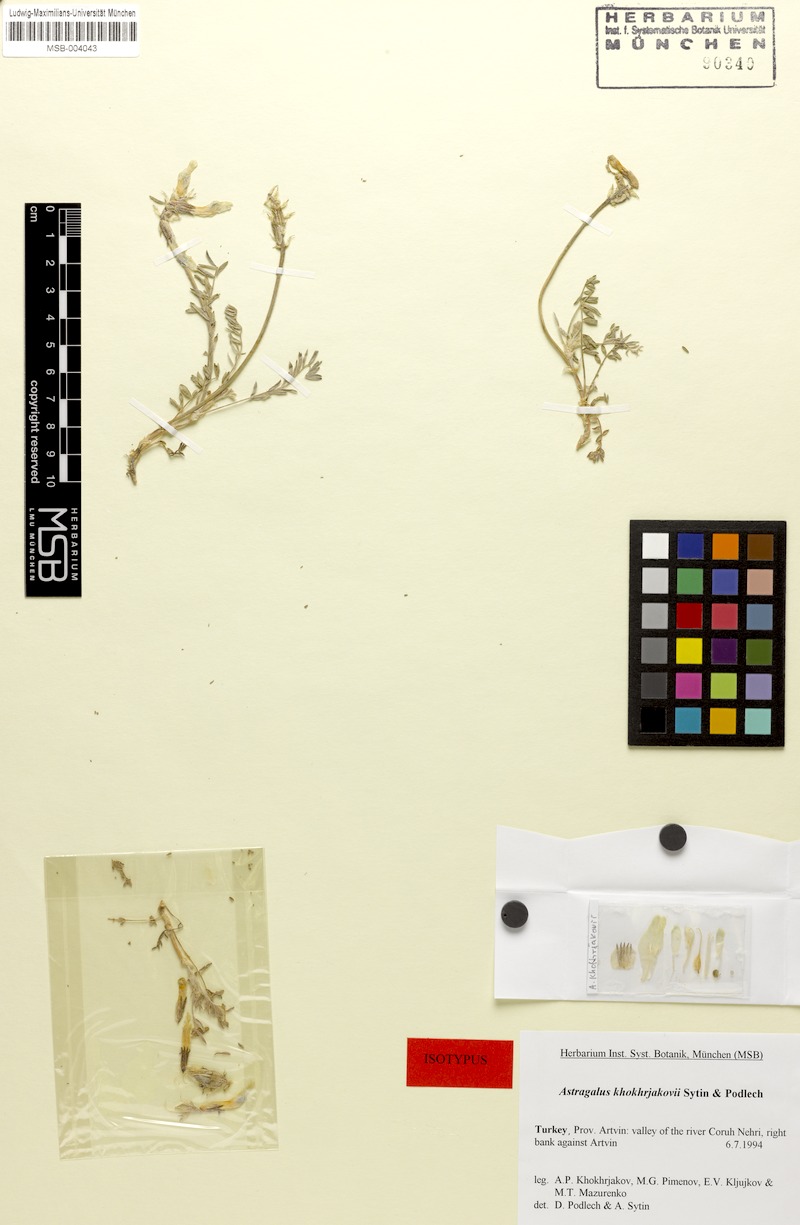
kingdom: Plantae
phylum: Tracheophyta
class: Magnoliopsida
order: Fabales
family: Fabaceae
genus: Astragalus
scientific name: Astragalus khokhrjakovii
